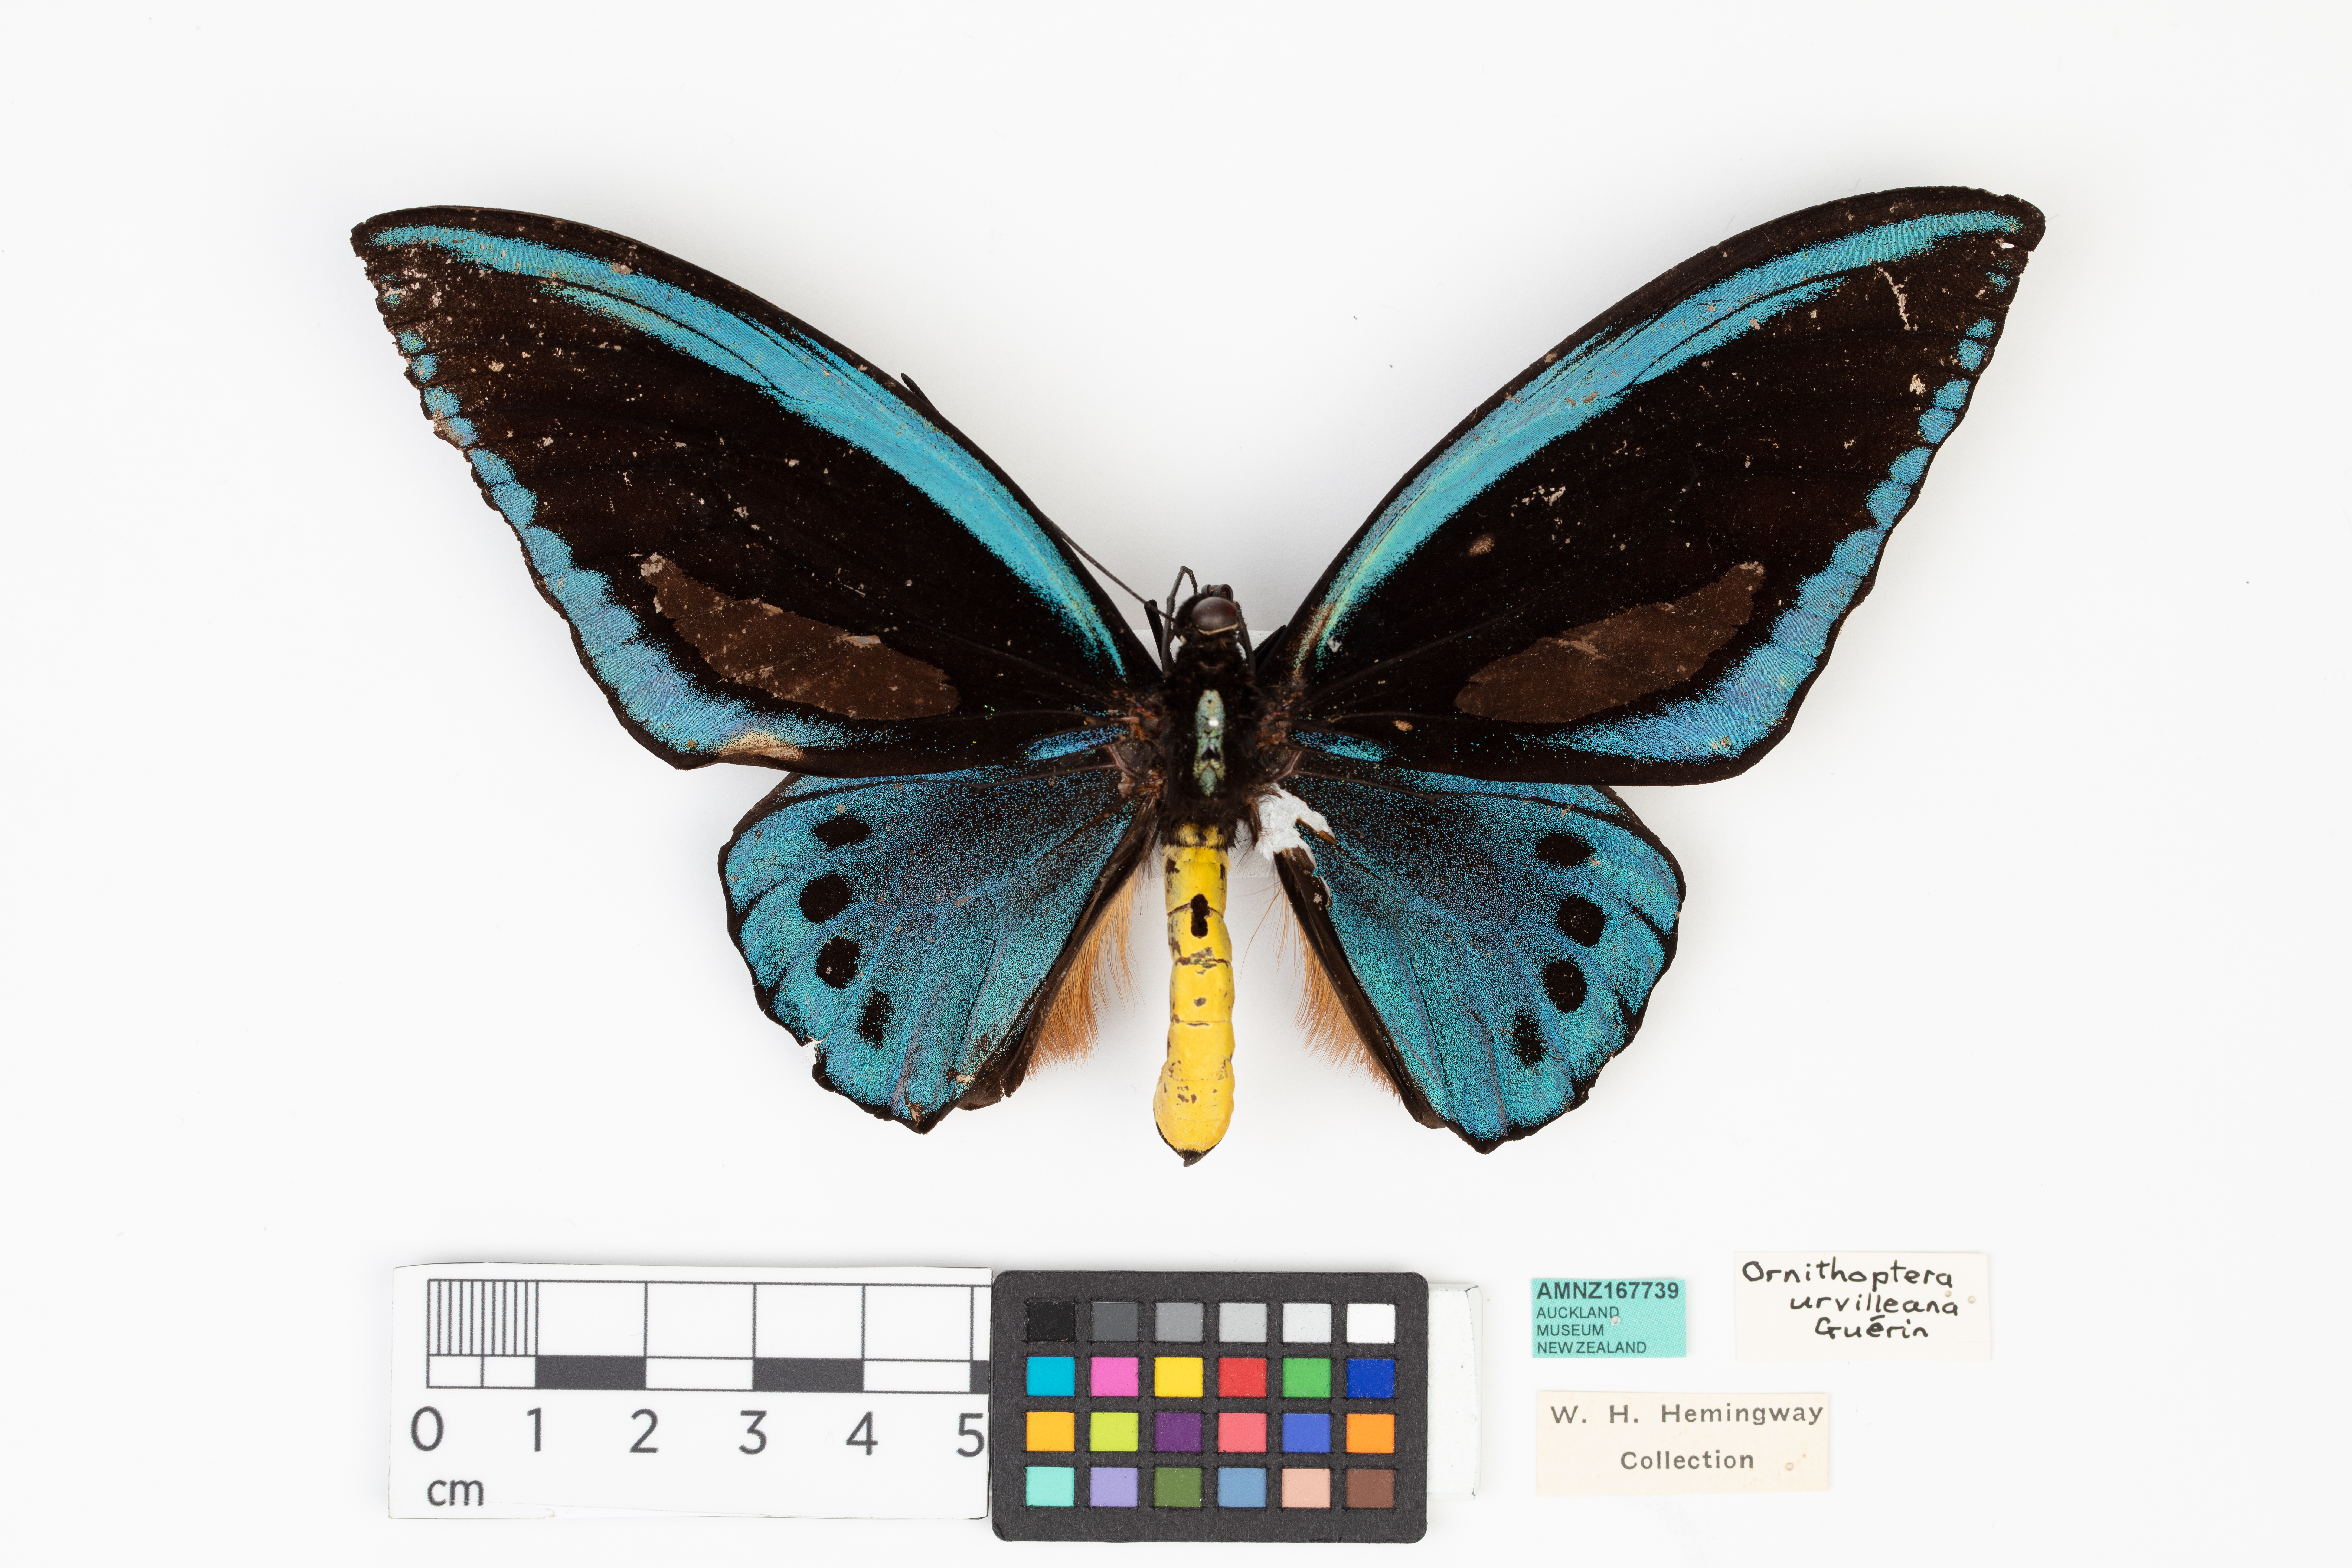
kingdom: Animalia
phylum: Arthropoda
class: Insecta
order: Lepidoptera
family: Papilionidae
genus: Ornithoptera
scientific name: Ornithoptera priamus
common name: Cape york birdwing
